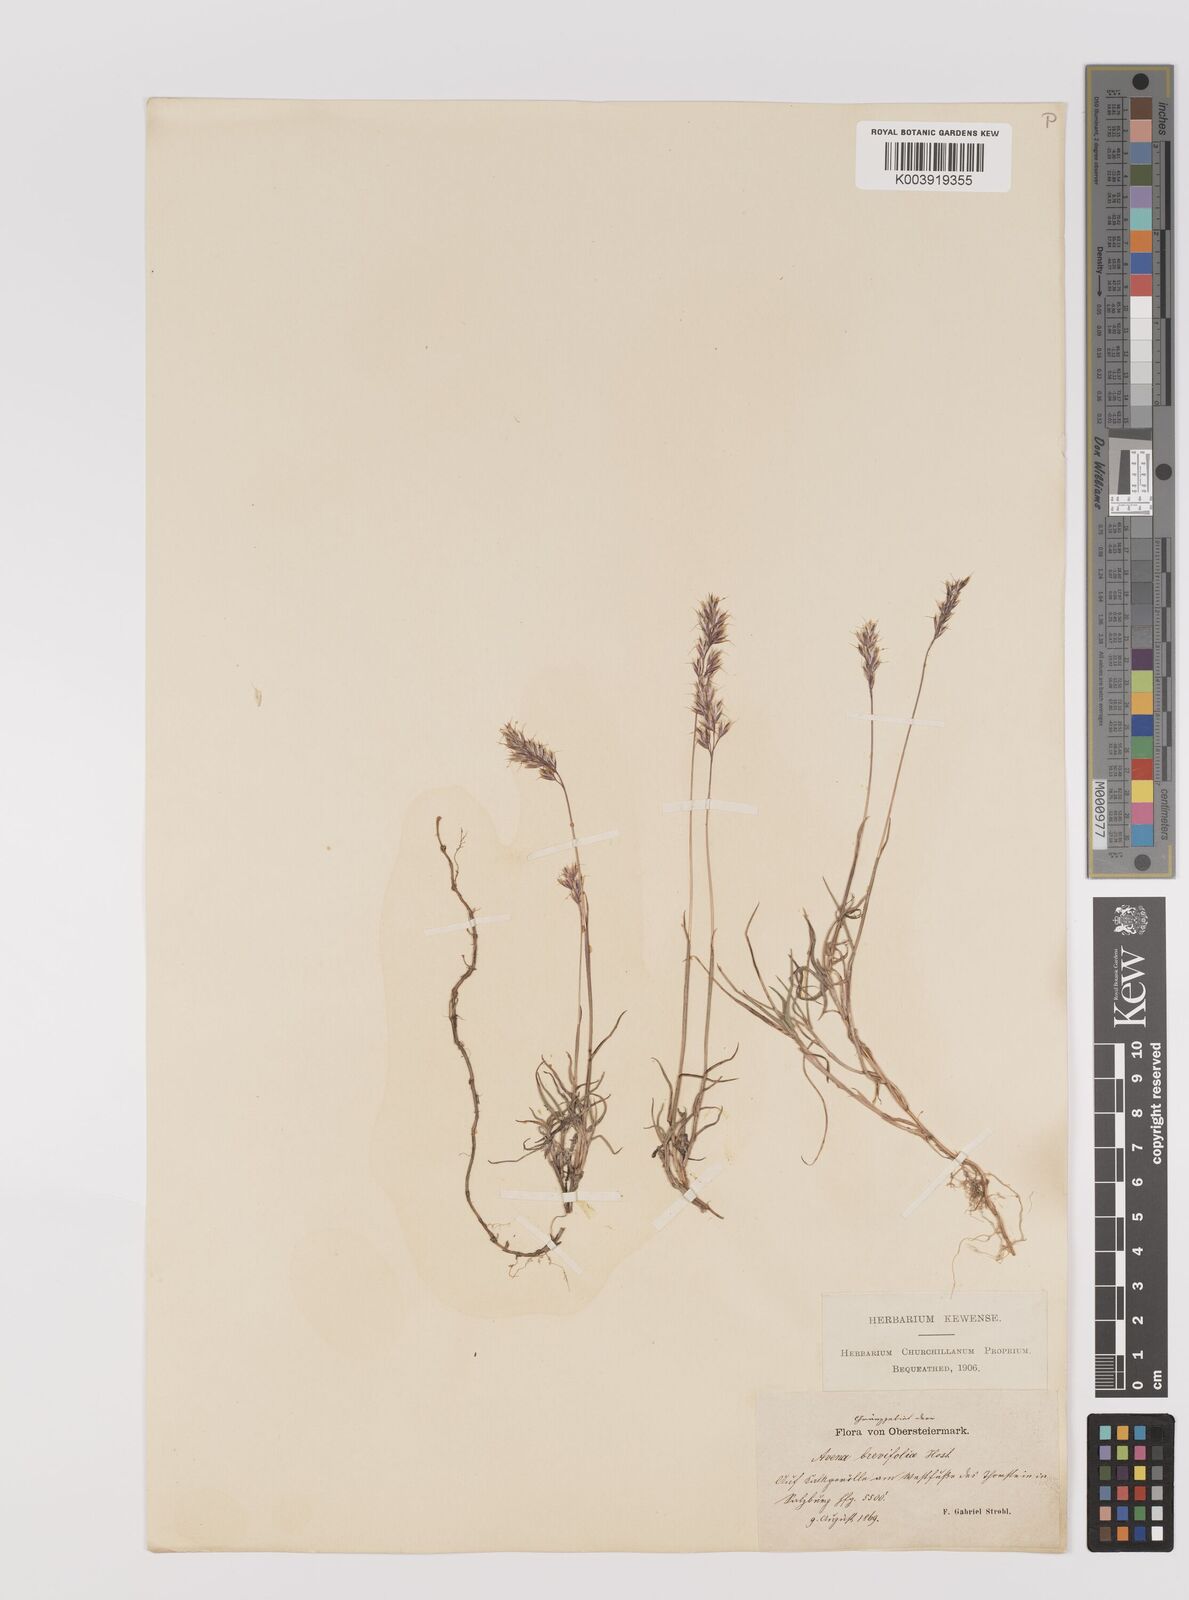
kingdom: Plantae
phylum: Tracheophyta
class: Liliopsida
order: Poales
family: Poaceae
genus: Acrospelion
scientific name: Acrospelion distichophyllum
